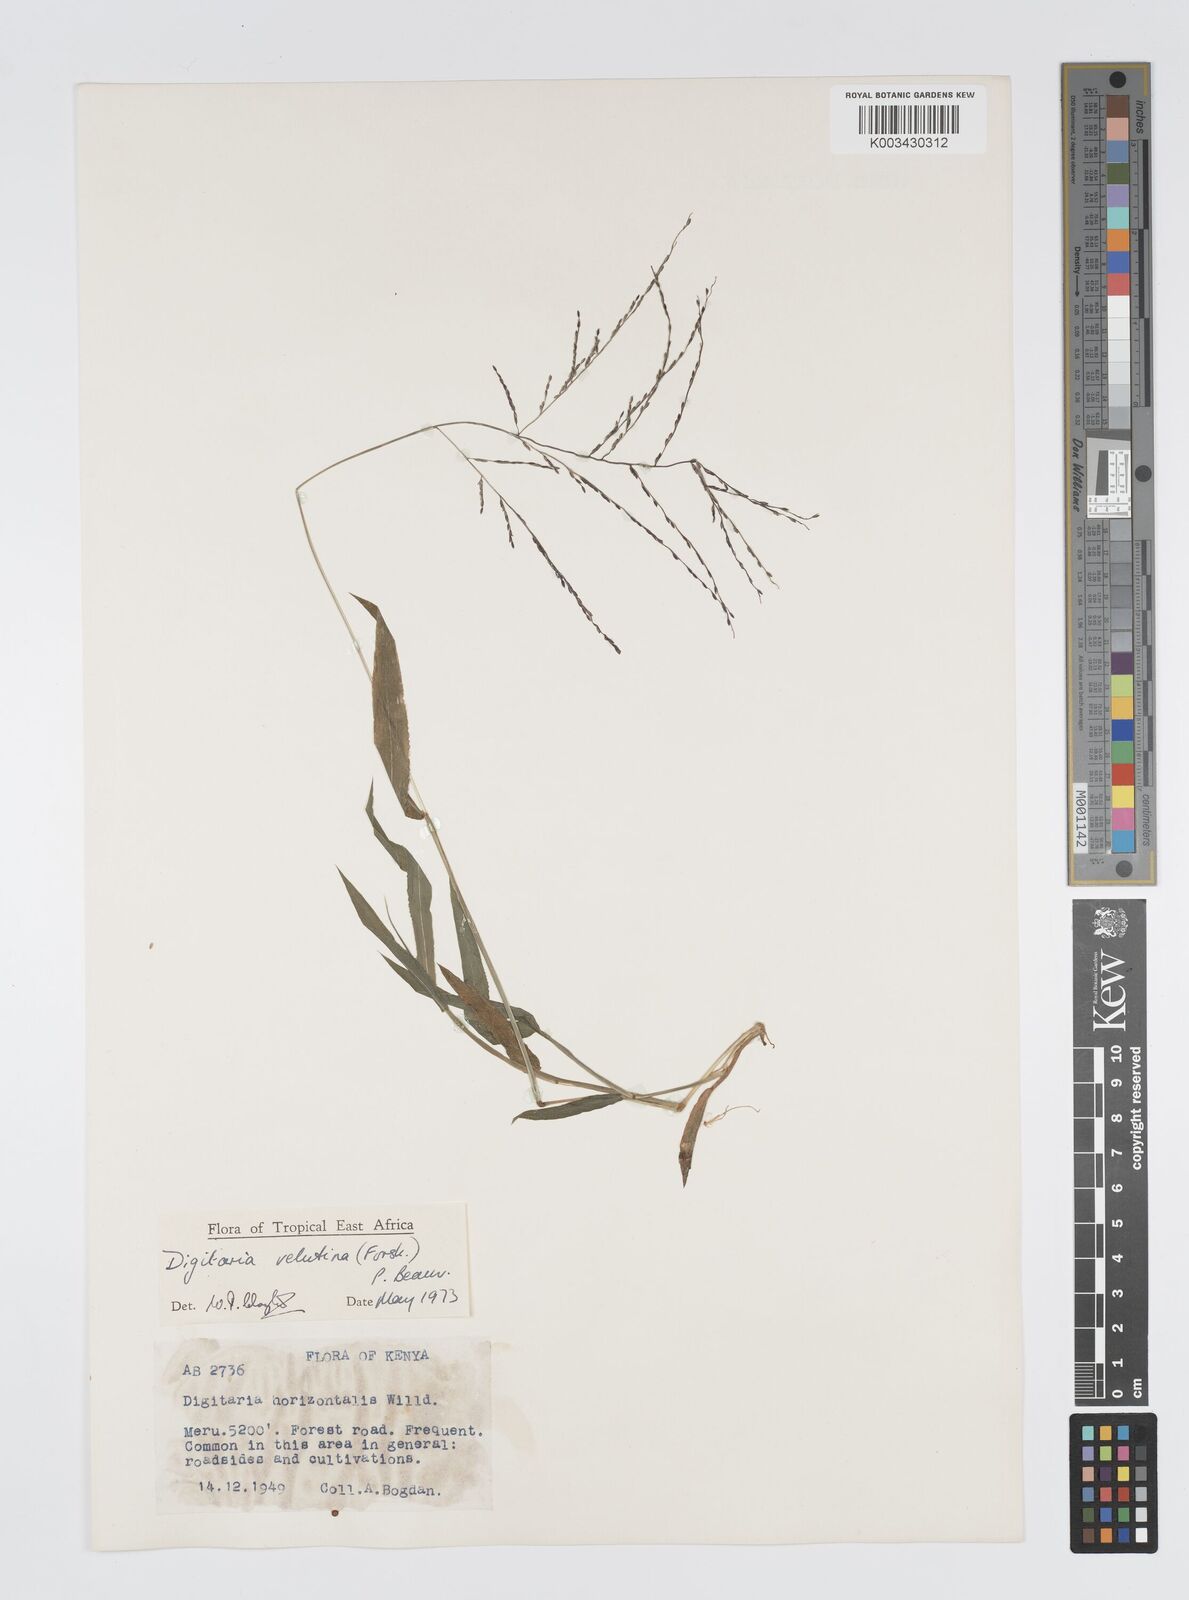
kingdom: Plantae
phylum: Tracheophyta
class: Liliopsida
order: Poales
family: Poaceae
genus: Digitaria
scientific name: Digitaria velutina
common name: Long-plume finger grass
